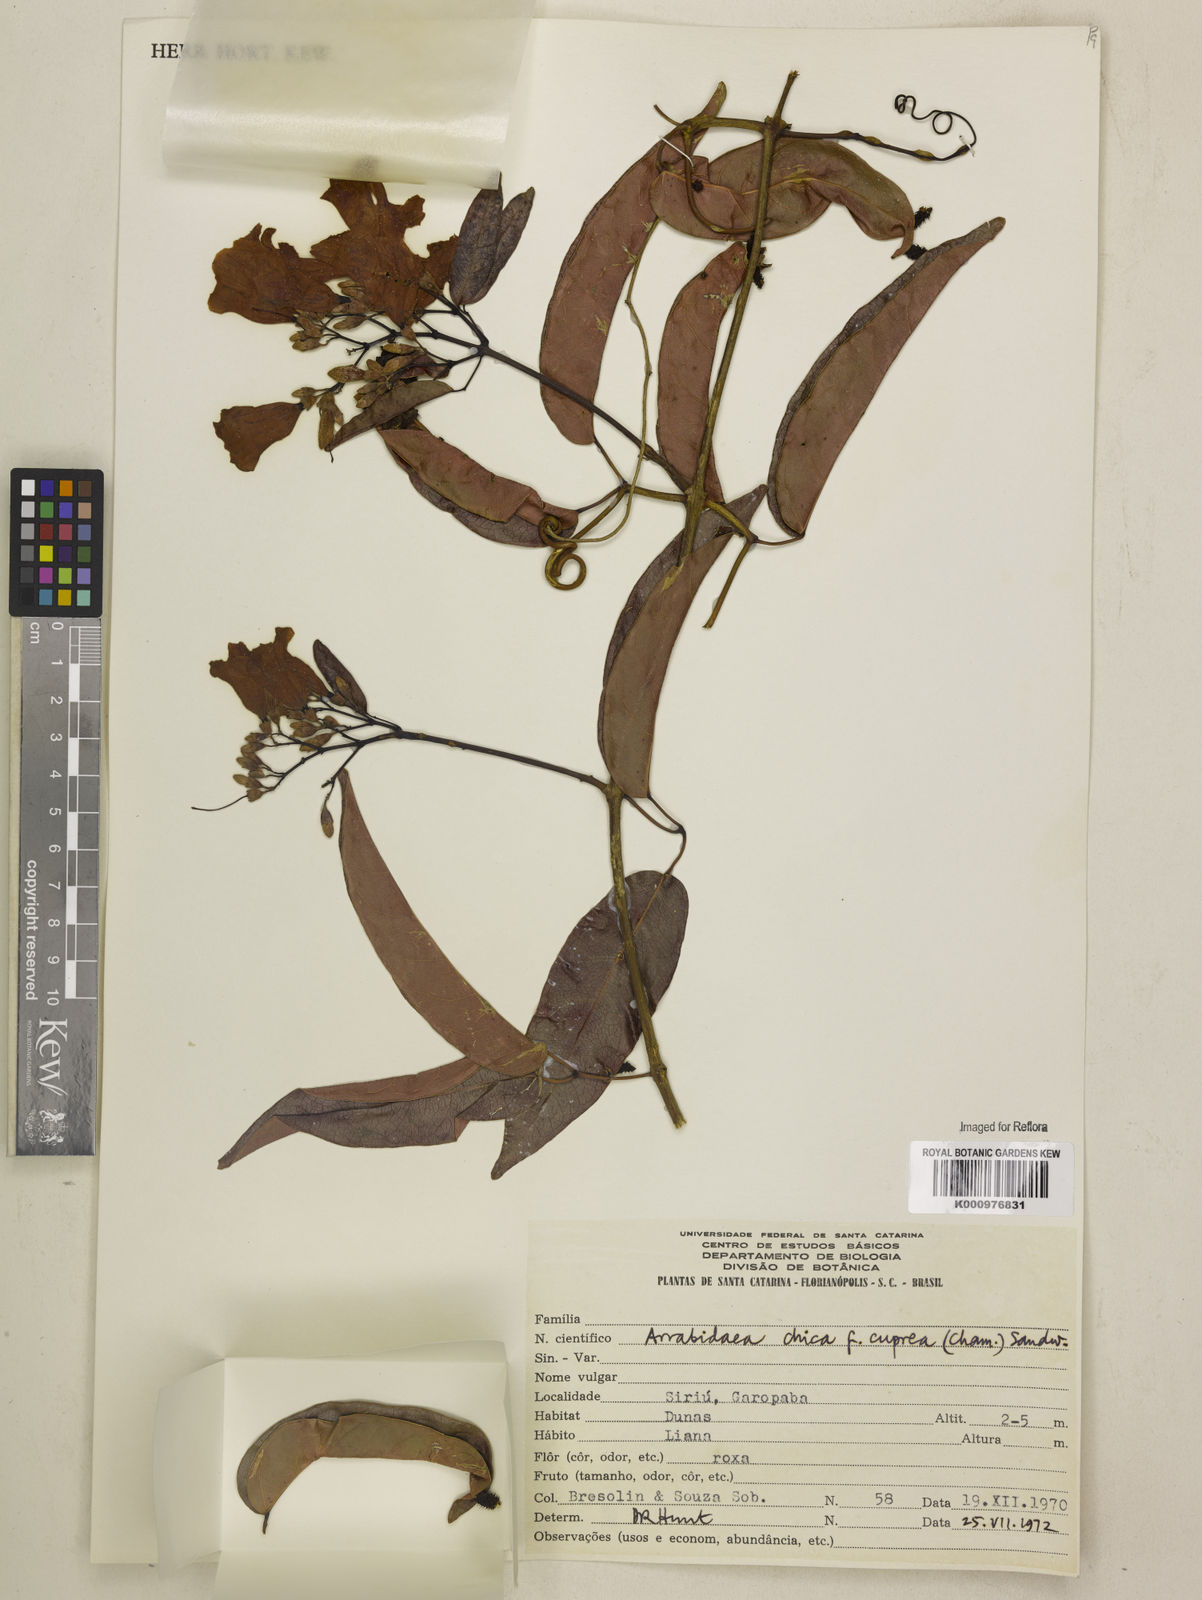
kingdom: Plantae
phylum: Tracheophyta
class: Magnoliopsida
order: Lamiales
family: Bignoniaceae
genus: Fridericia
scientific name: Fridericia chica
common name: Cricketvine
